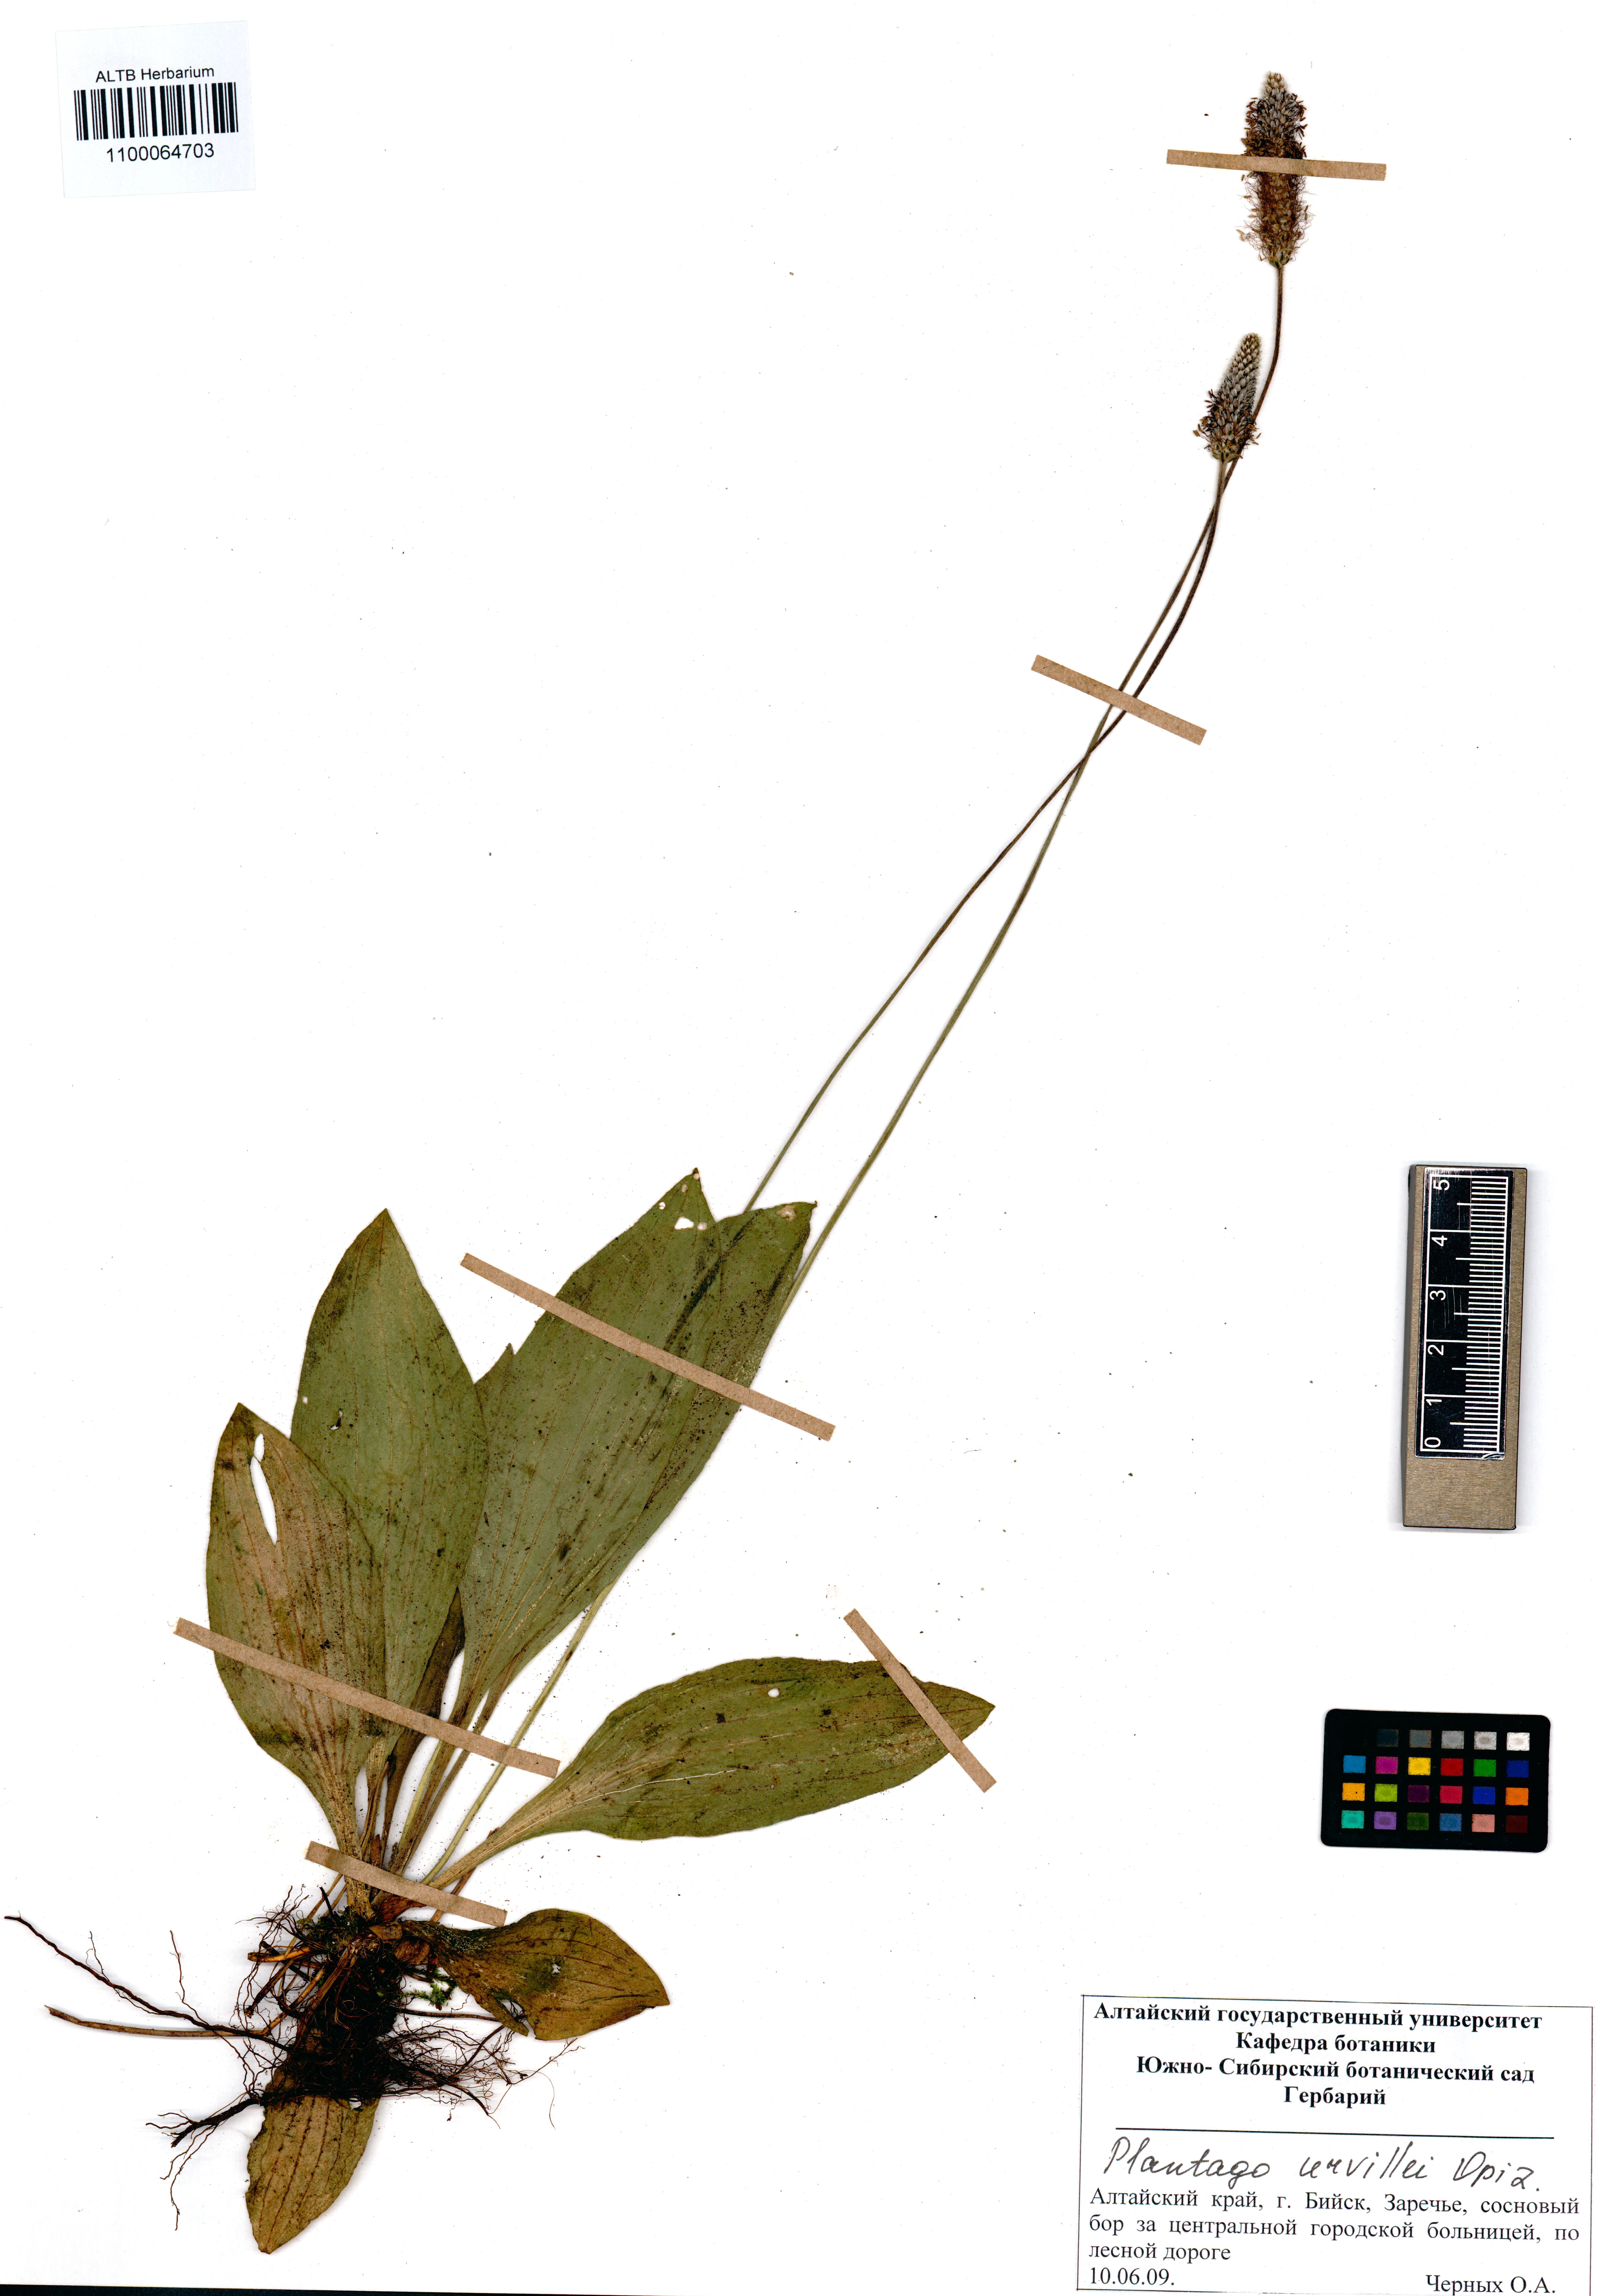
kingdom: Plantae
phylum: Tracheophyta
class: Magnoliopsida
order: Lamiales
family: Plantaginaceae
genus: Plantago
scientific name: Plantago urvillei
